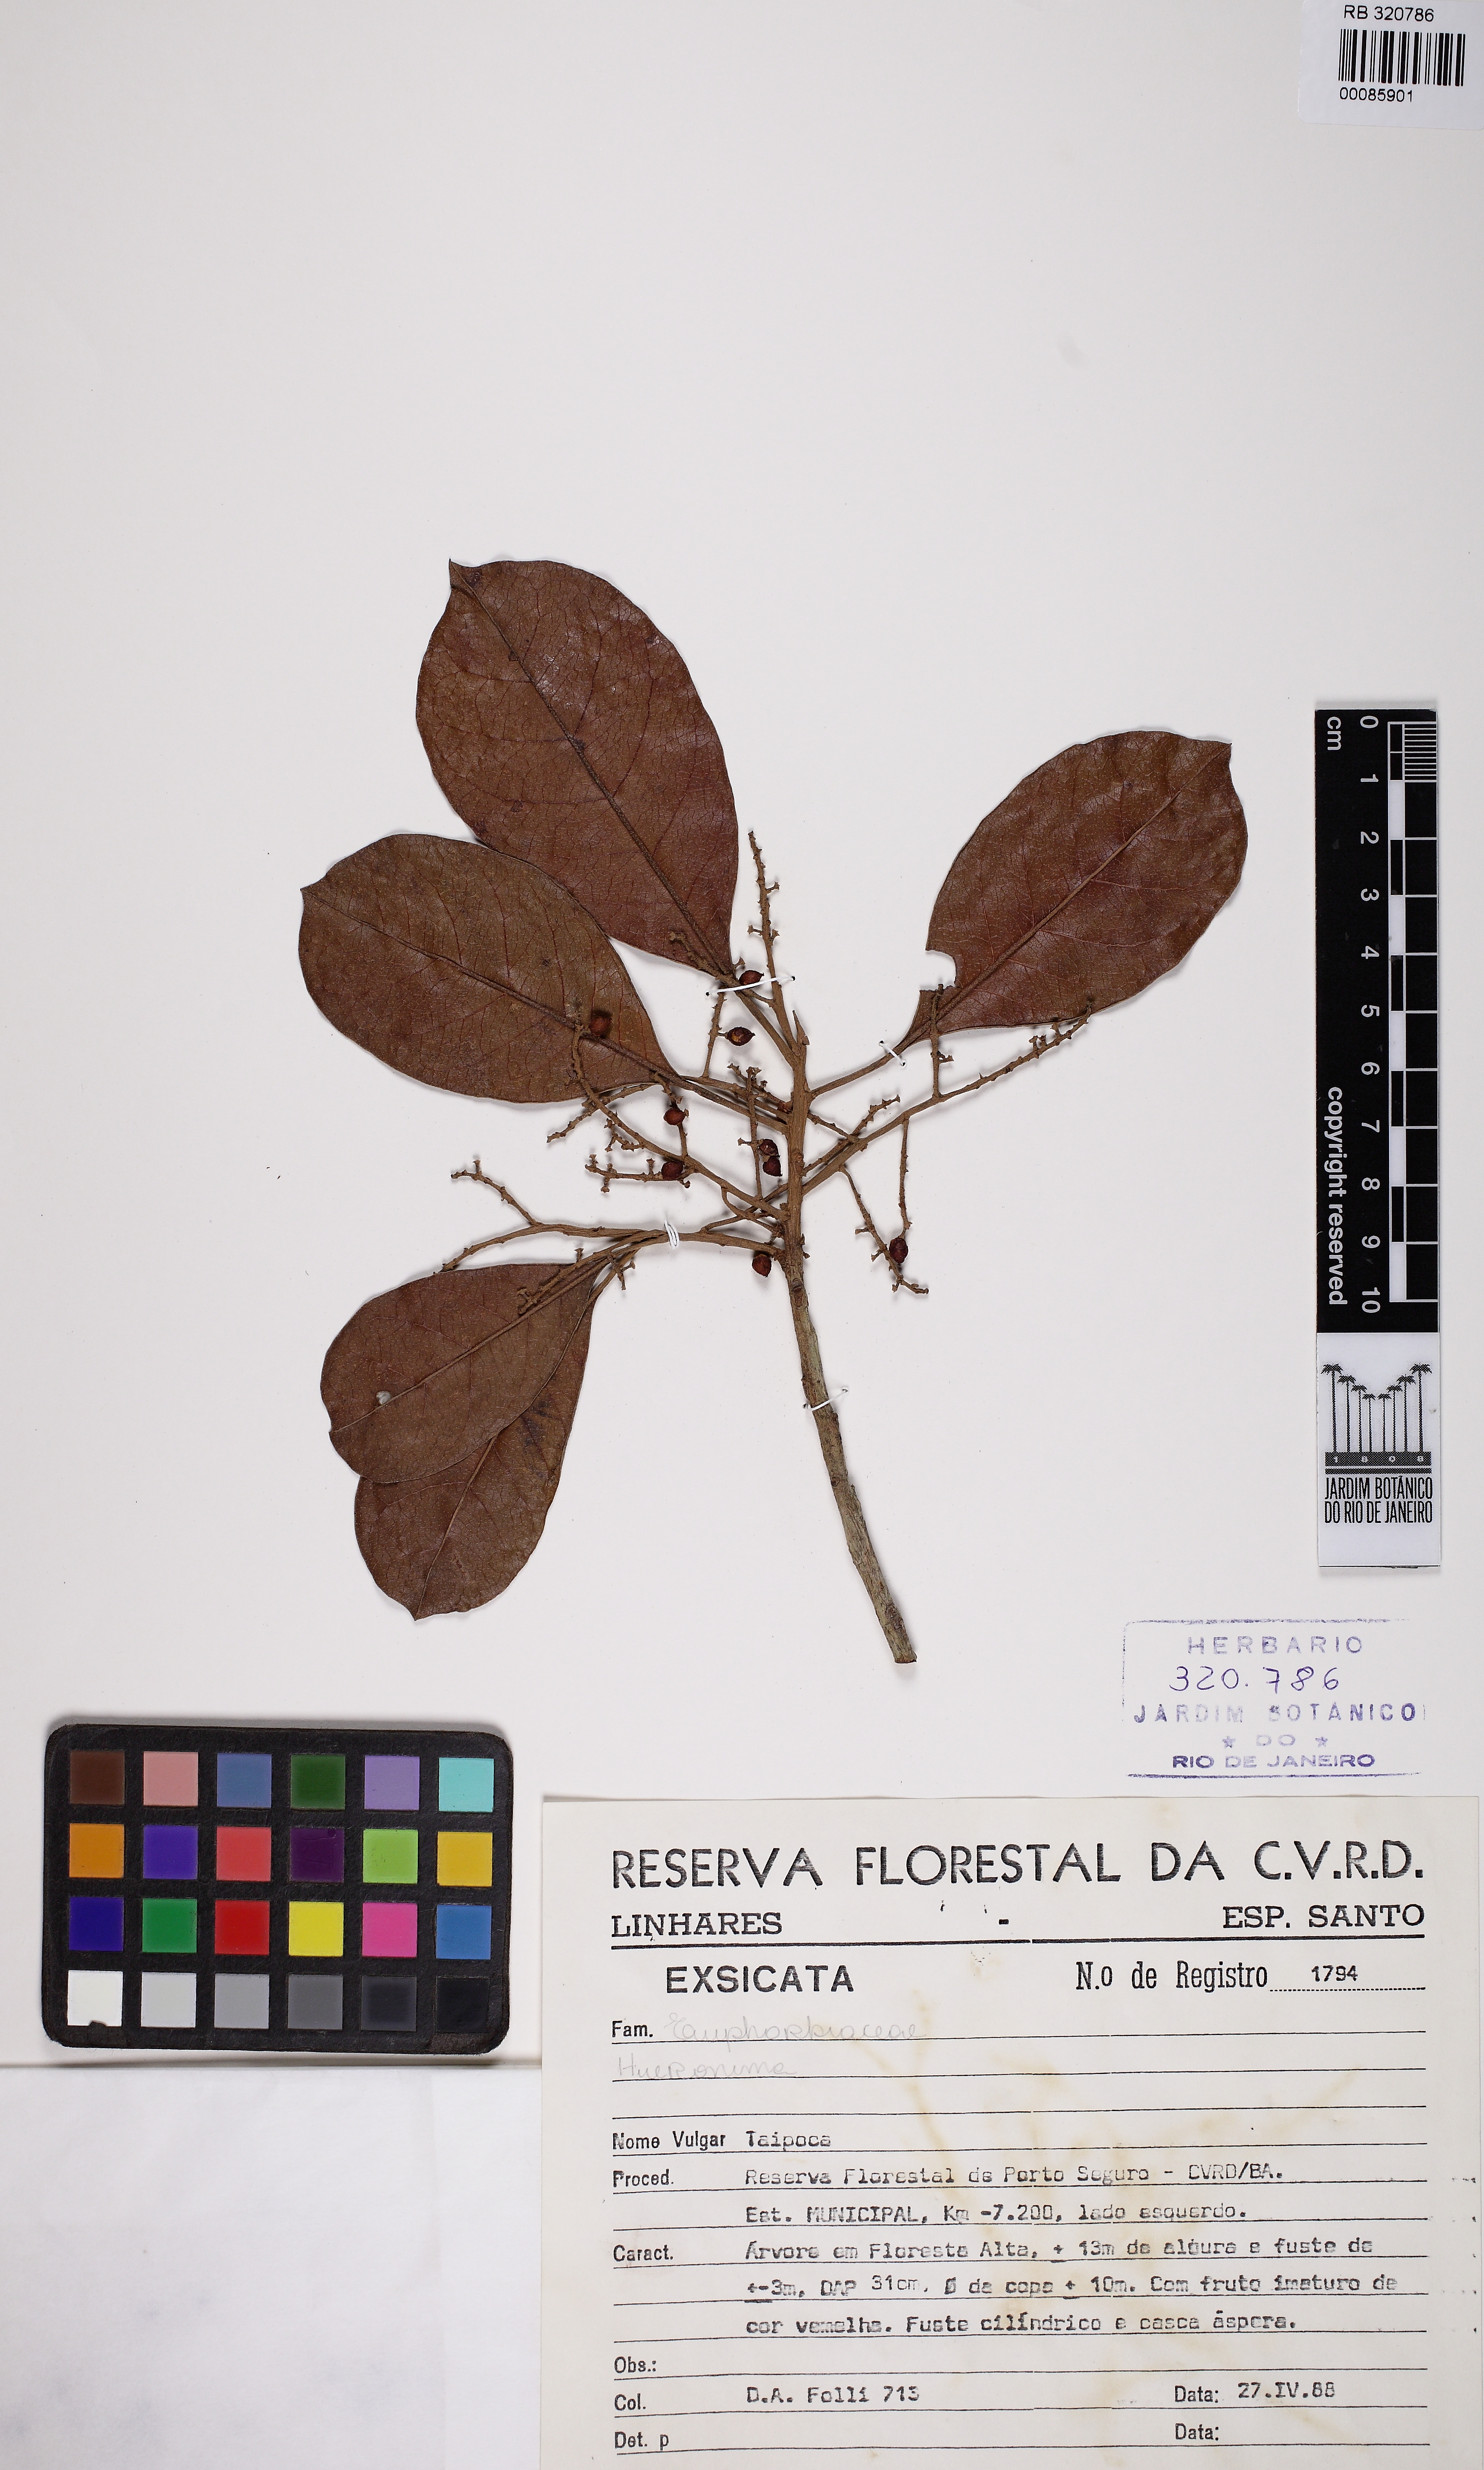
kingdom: Plantae
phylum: Tracheophyta
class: Magnoliopsida
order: Malpighiales
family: Euphorbiaceae
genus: Hieronyma
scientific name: Hieronyma
